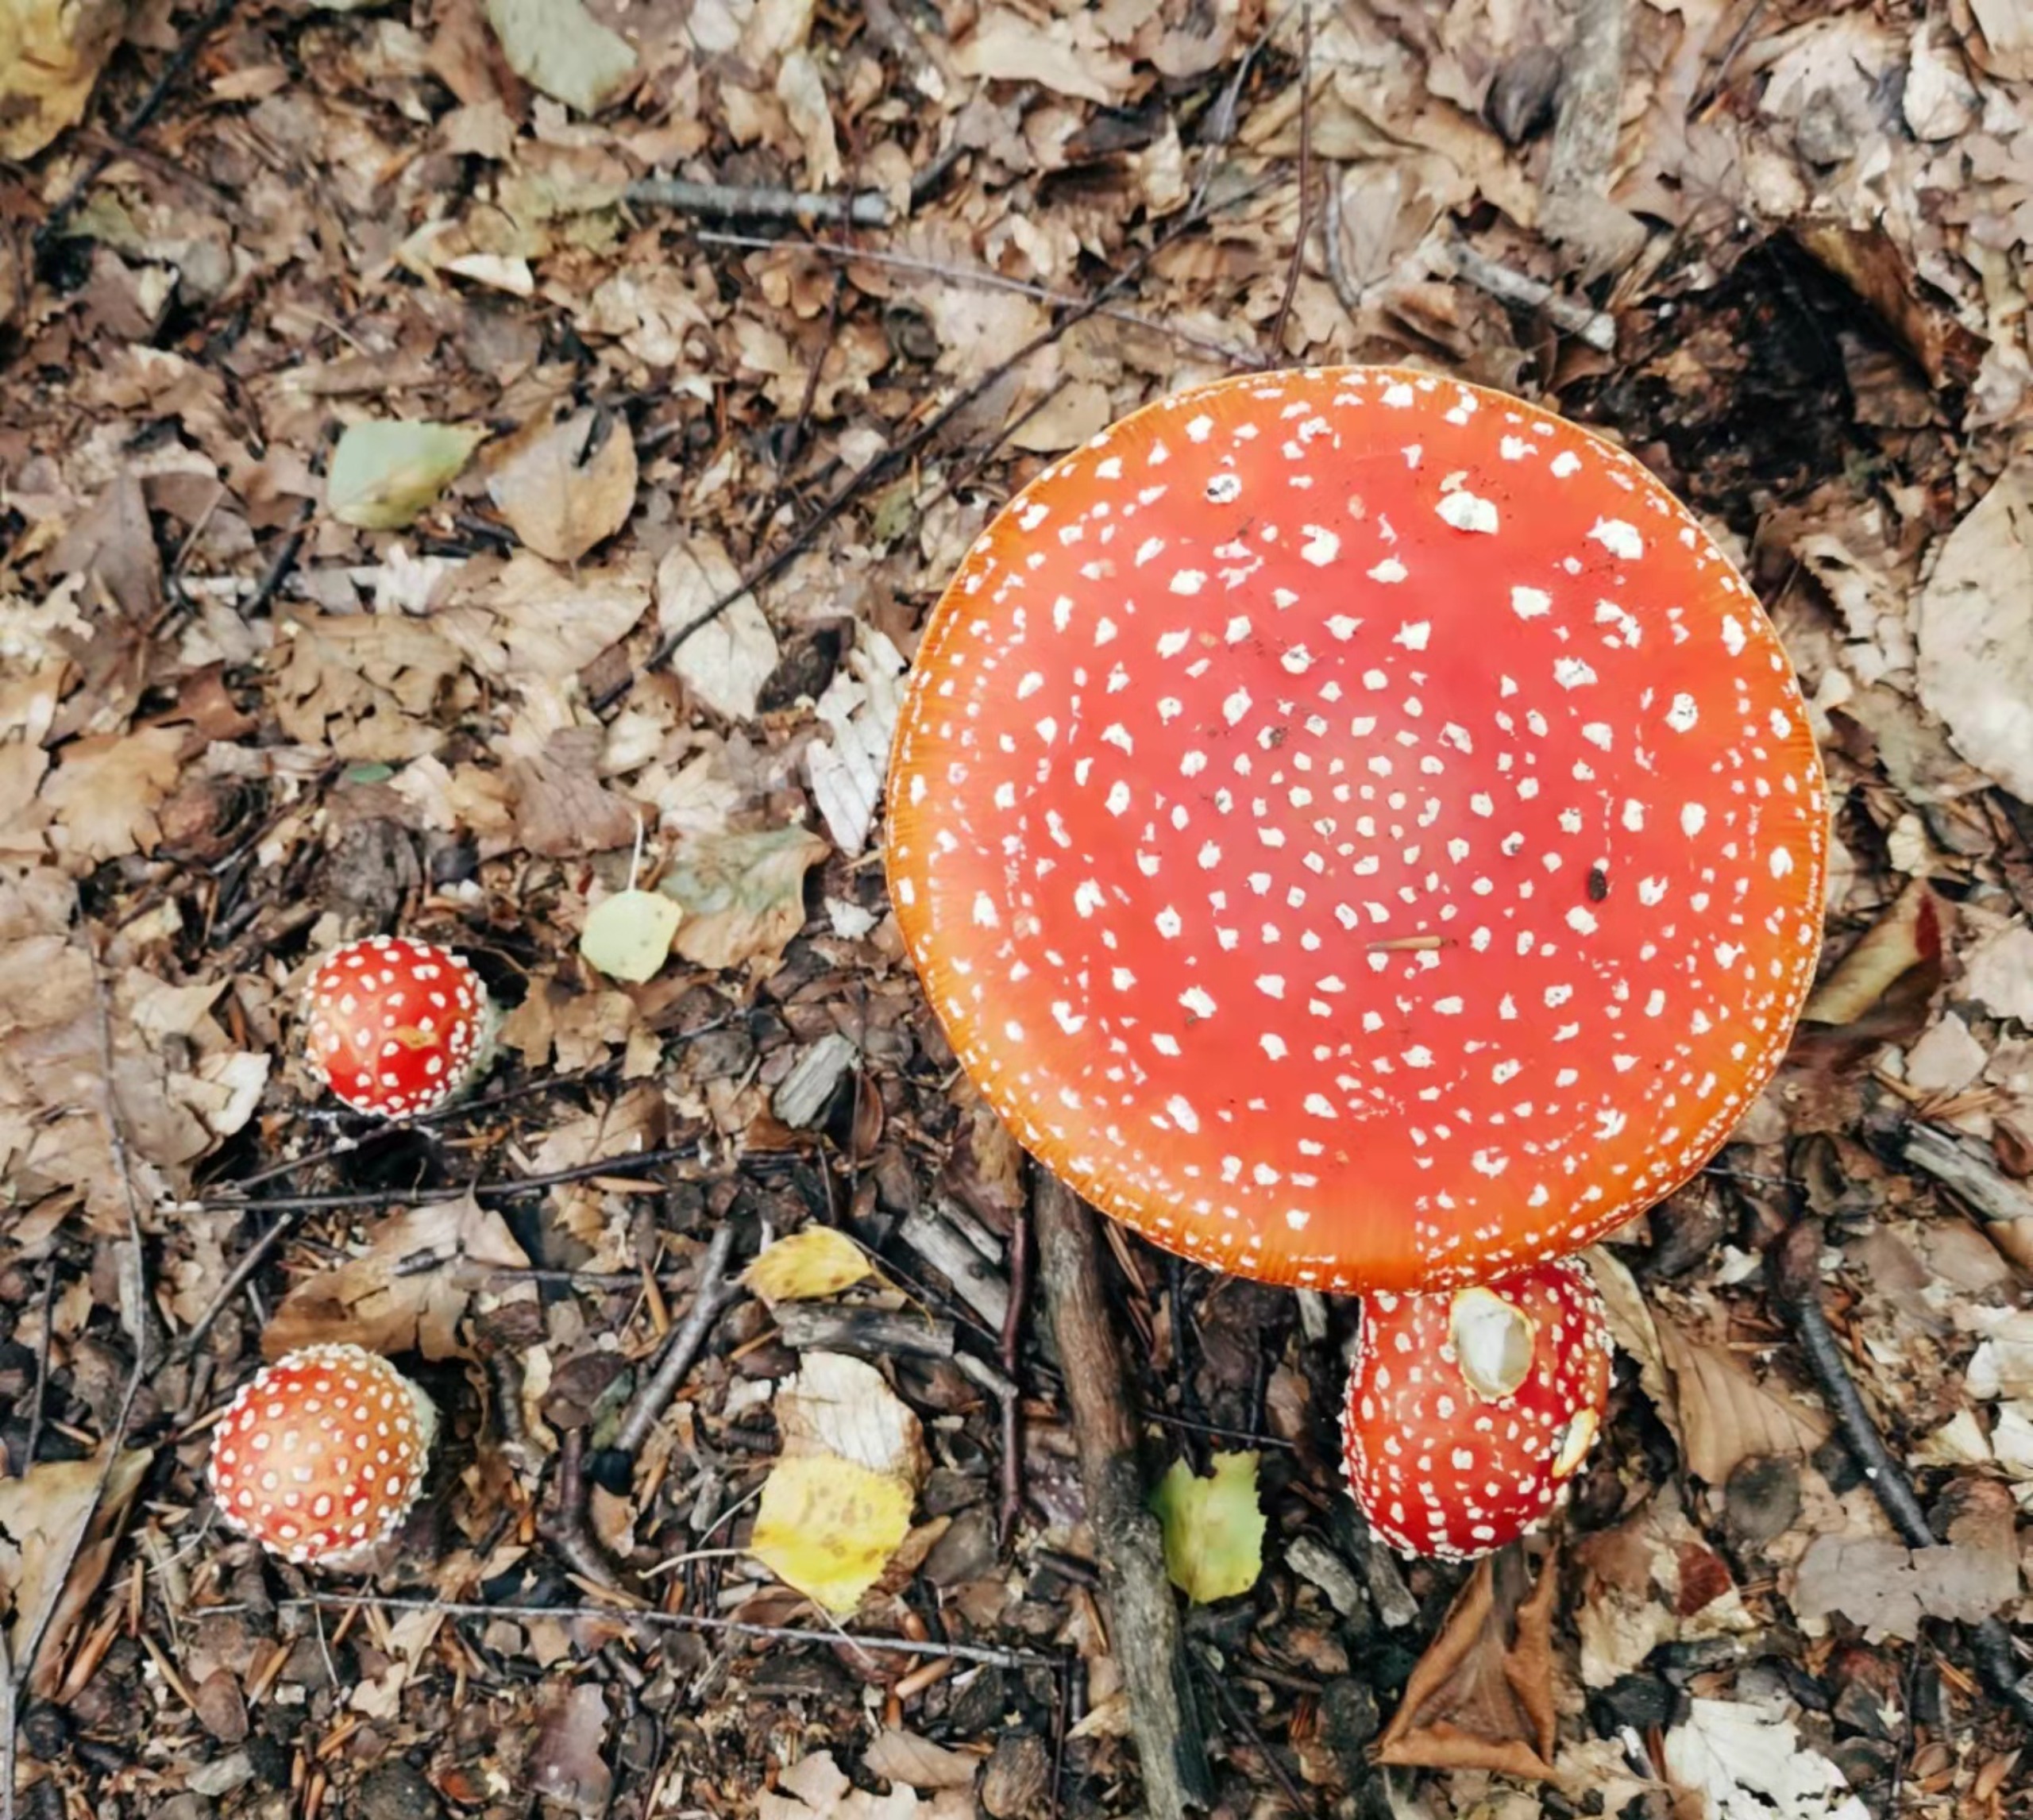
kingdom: Fungi
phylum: Basidiomycota
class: Agaricomycetes
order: Agaricales
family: Amanitaceae
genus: Amanita
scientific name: Amanita muscaria
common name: Rød fluesvamp
